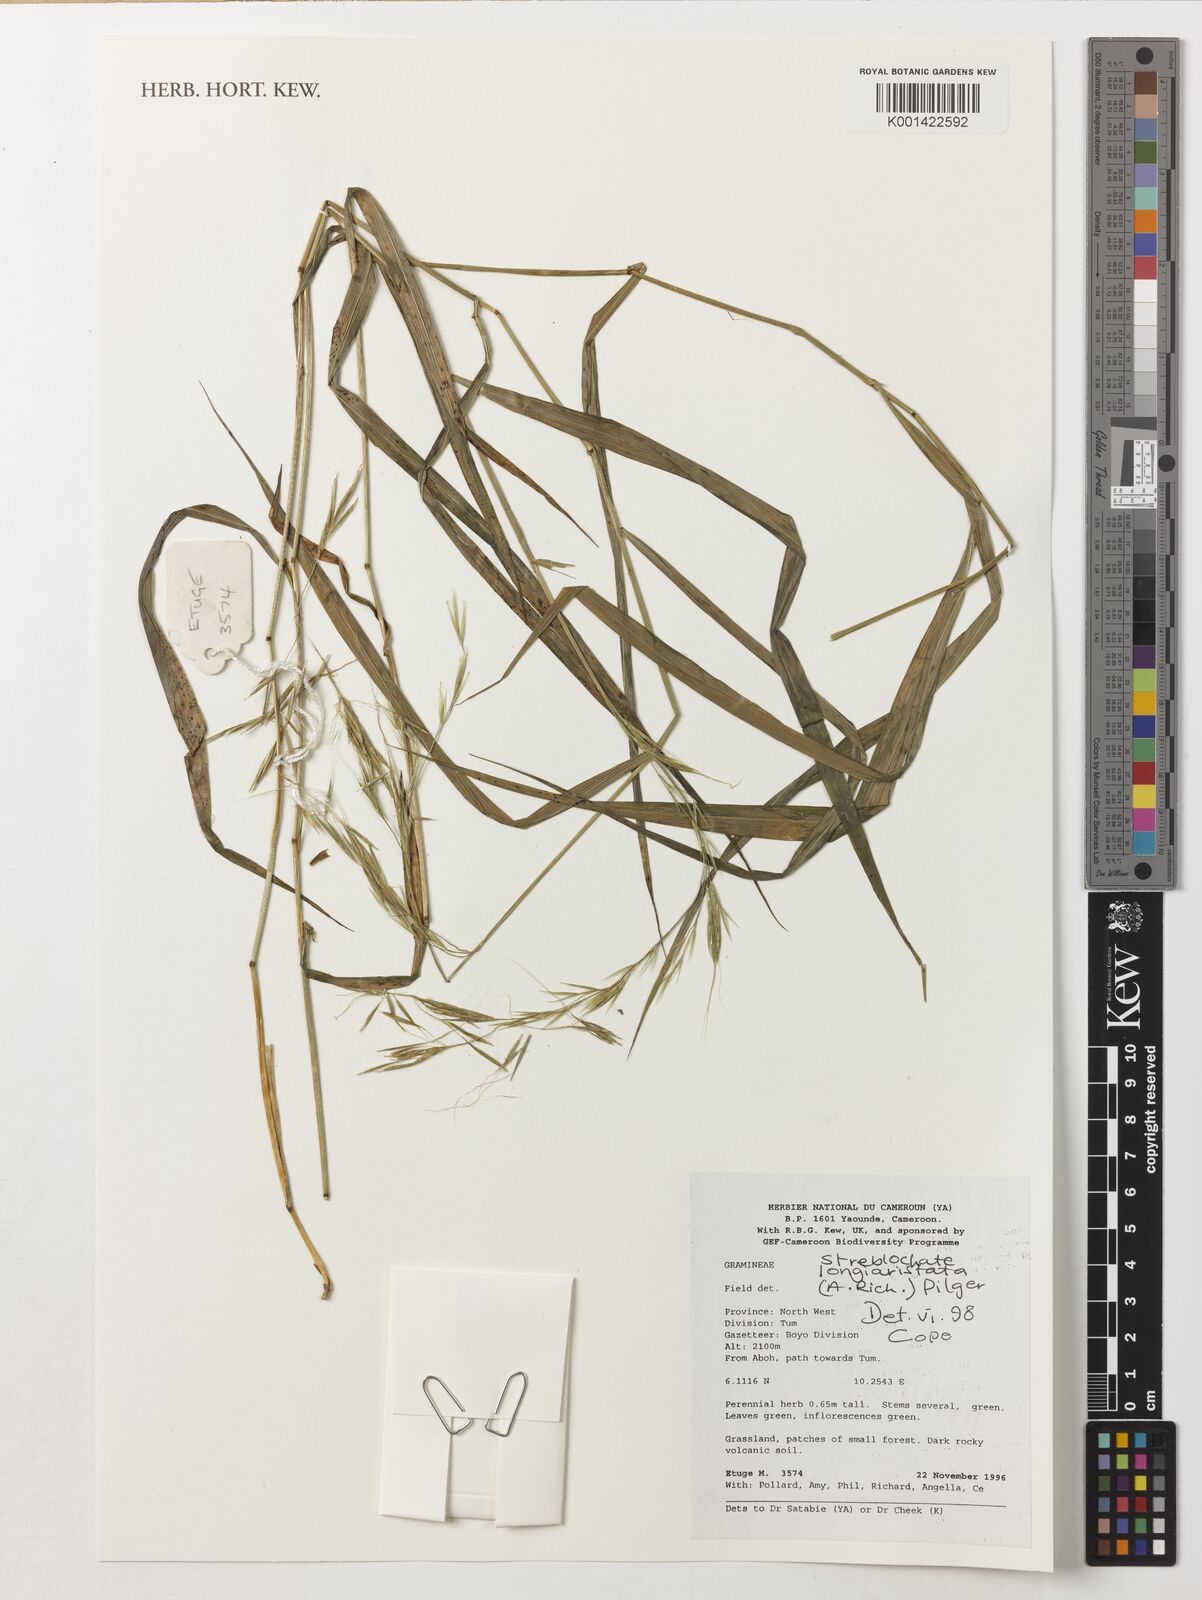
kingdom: Plantae
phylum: Tracheophyta
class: Liliopsida
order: Poales
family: Poaceae
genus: Koordersiochloa
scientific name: Koordersiochloa longiarista
